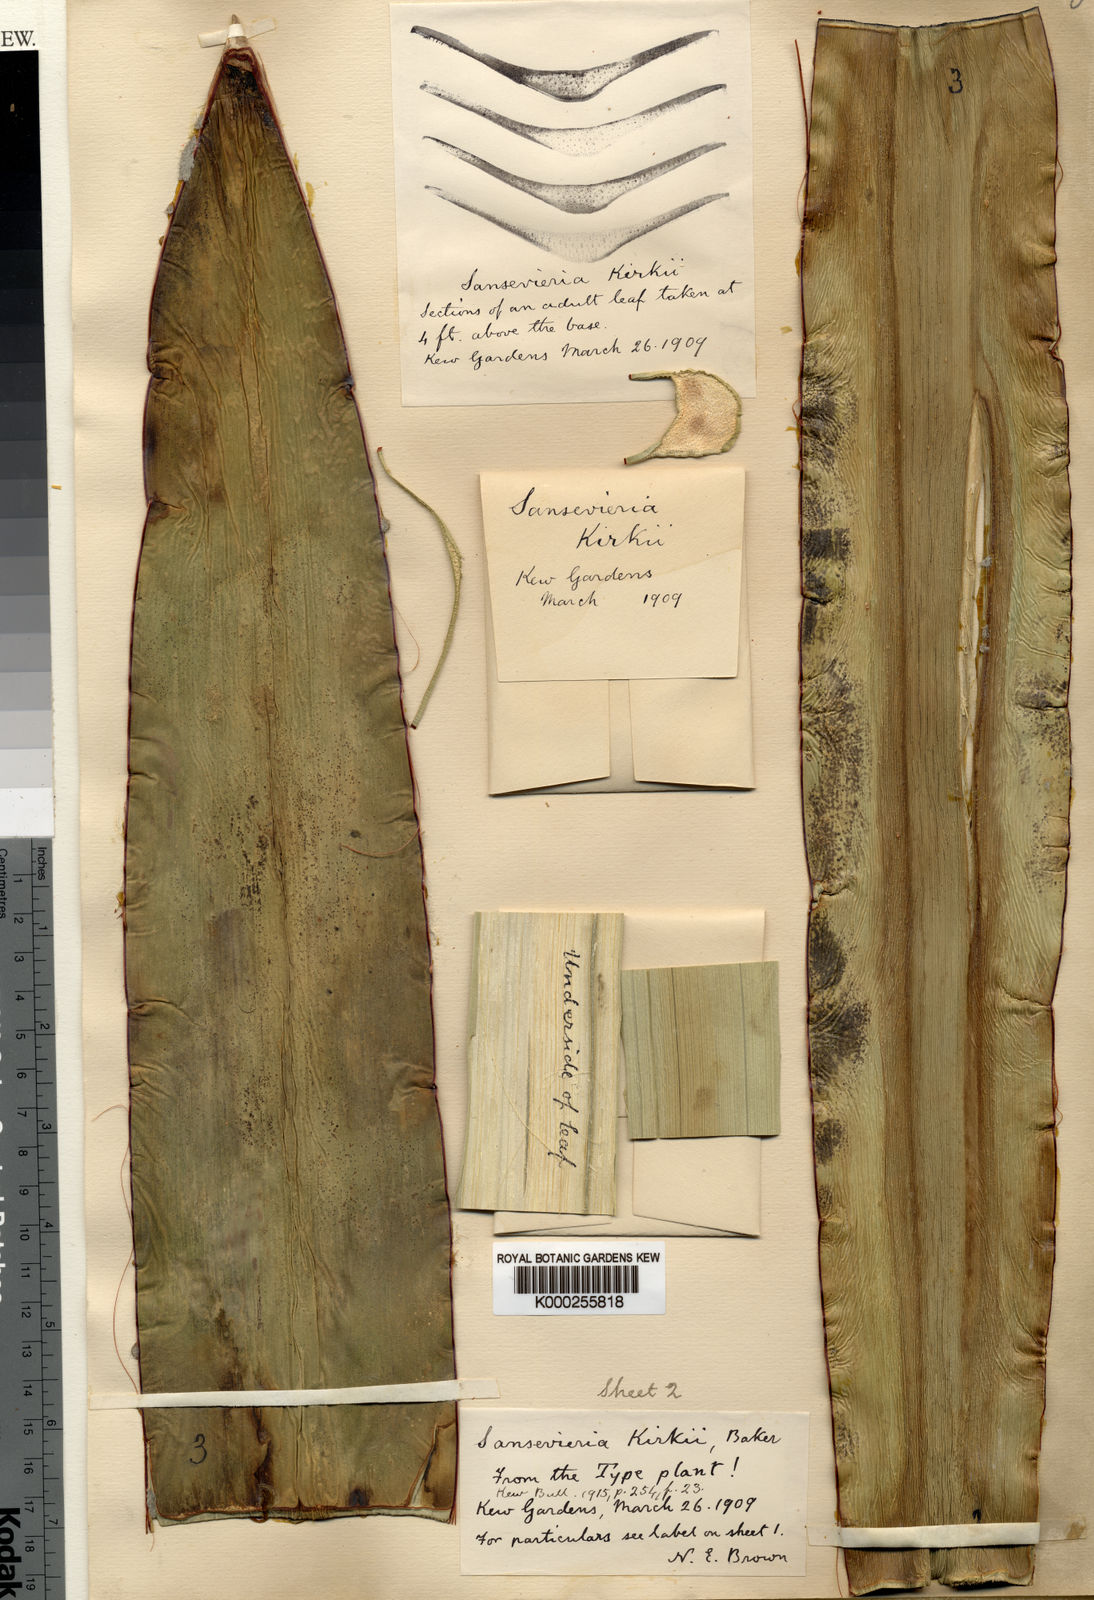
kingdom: Plantae
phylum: Tracheophyta
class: Liliopsida
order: Asparagales
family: Asparagaceae
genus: Dracaena
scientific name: Dracaena pethera
